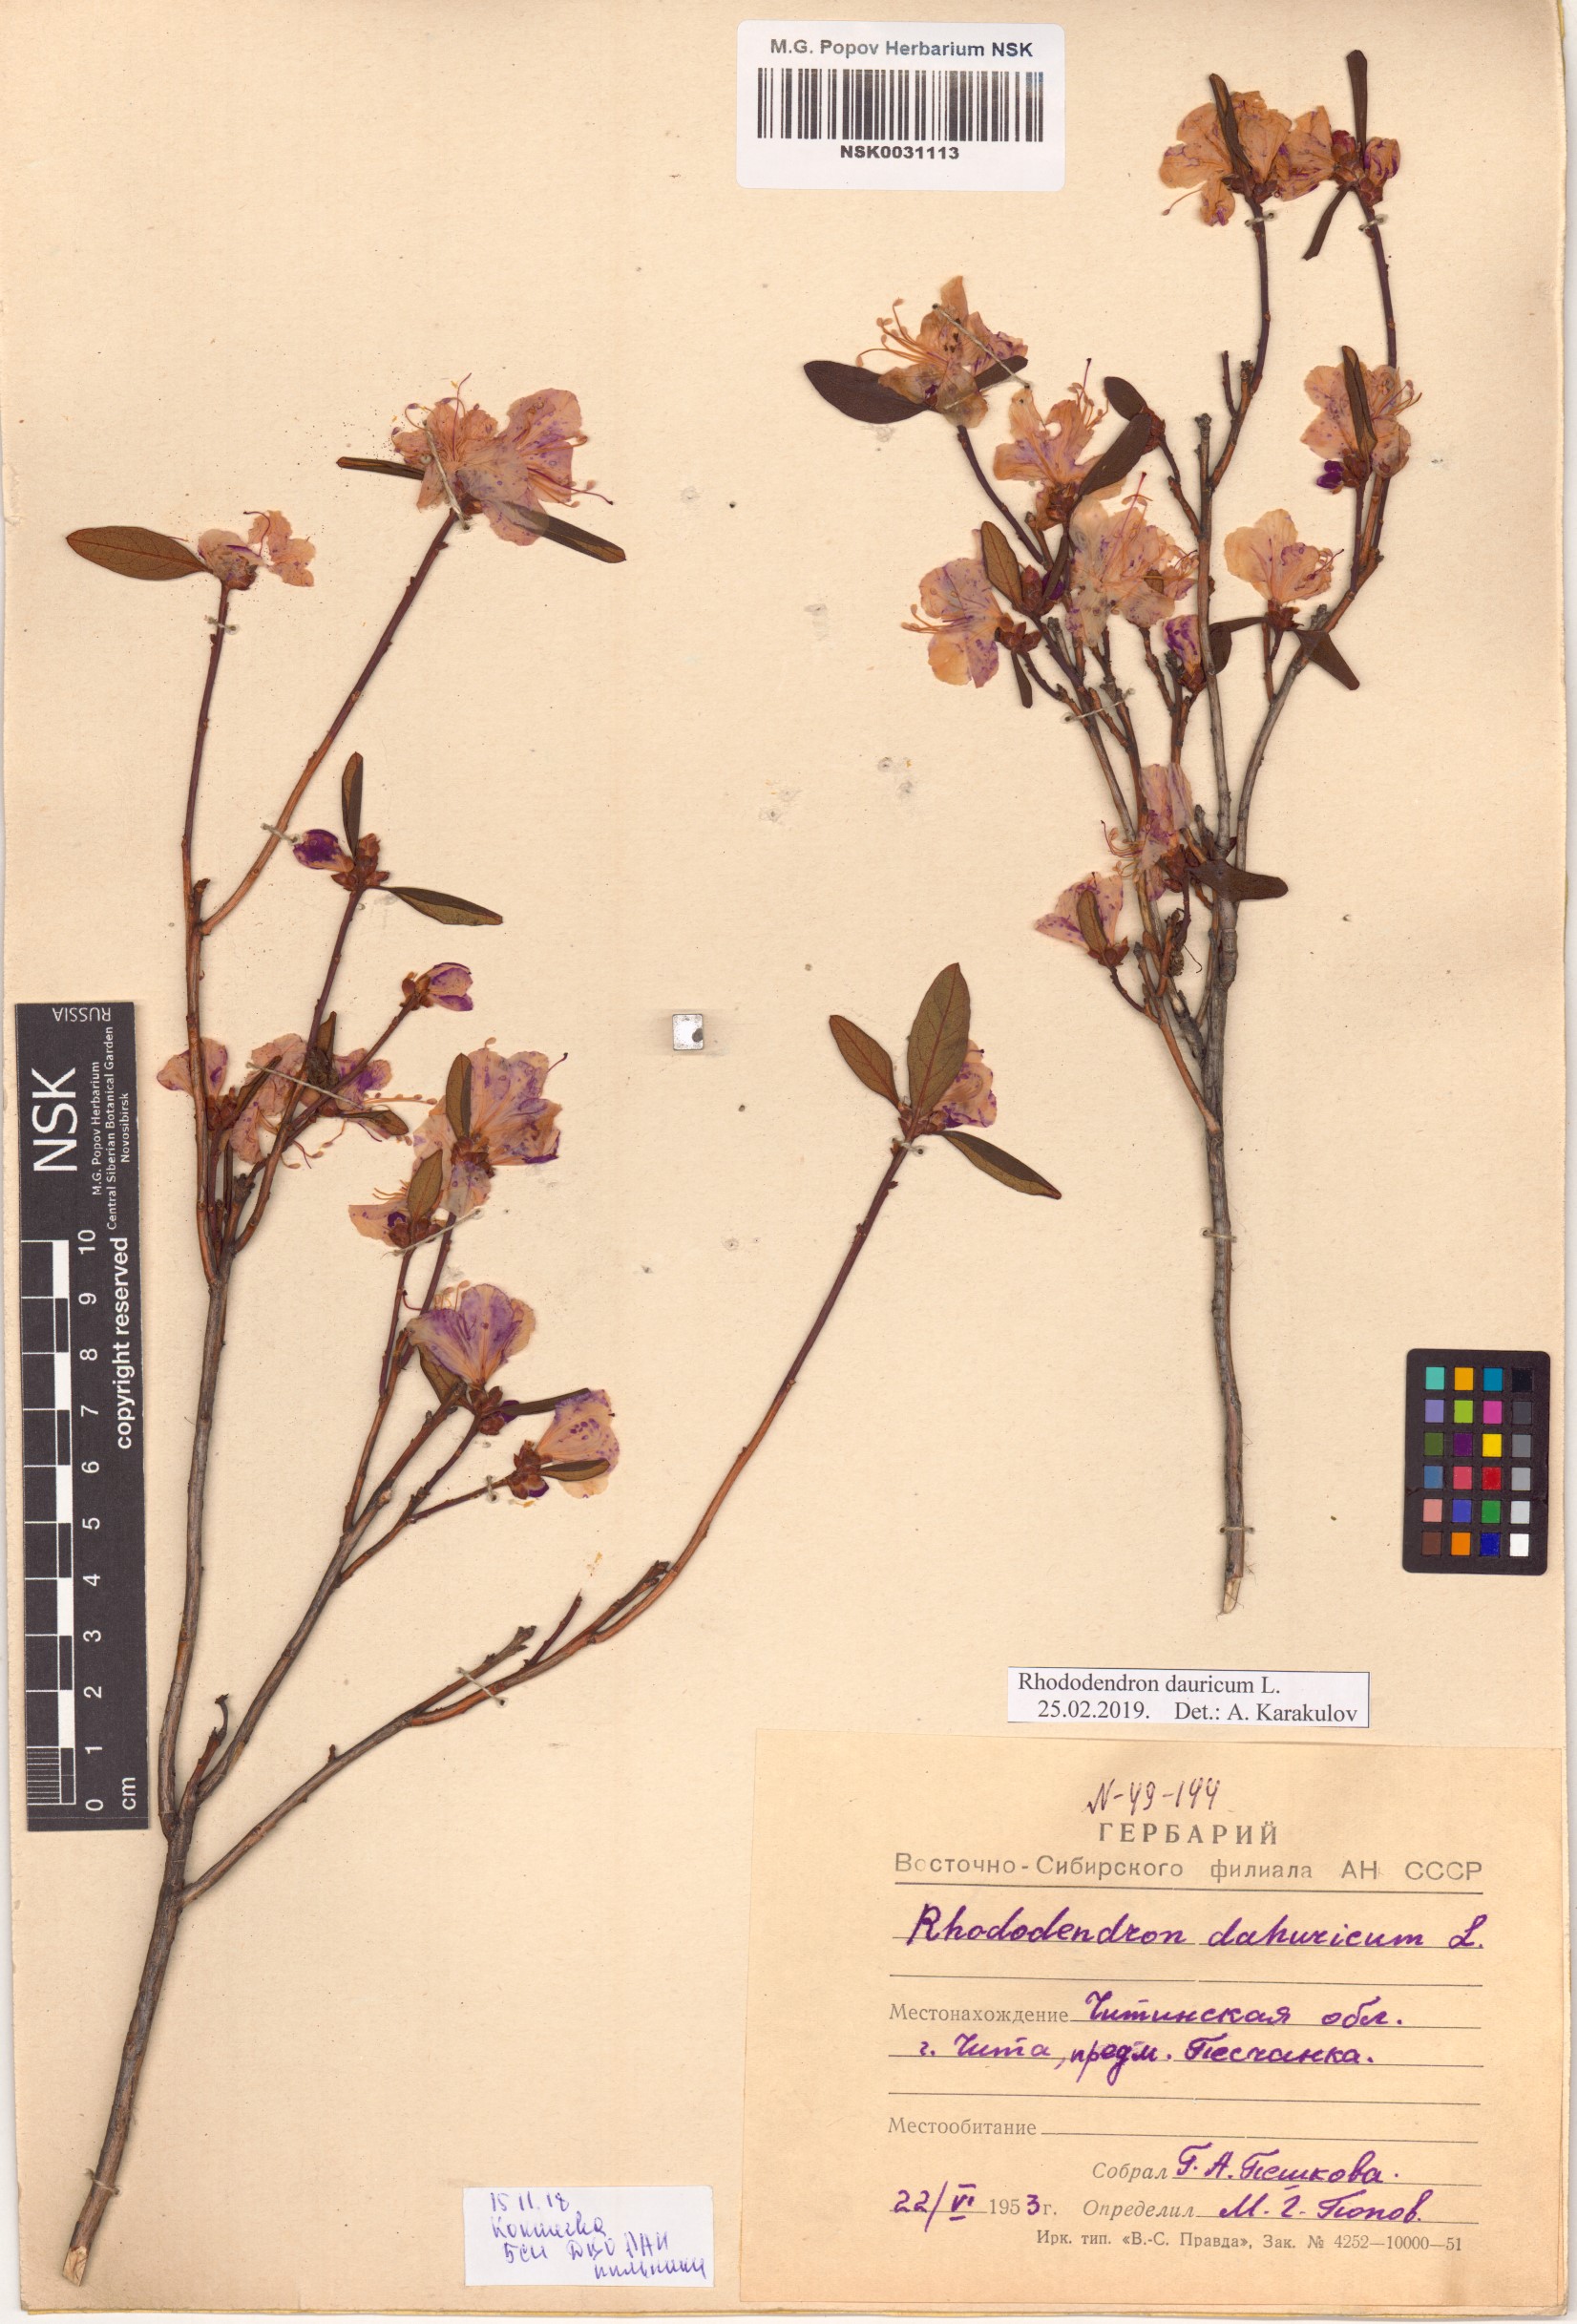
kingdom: Plantae
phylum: Tracheophyta
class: Magnoliopsida
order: Ericales
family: Ericaceae
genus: Rhododendron
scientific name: Rhododendron dauricum
